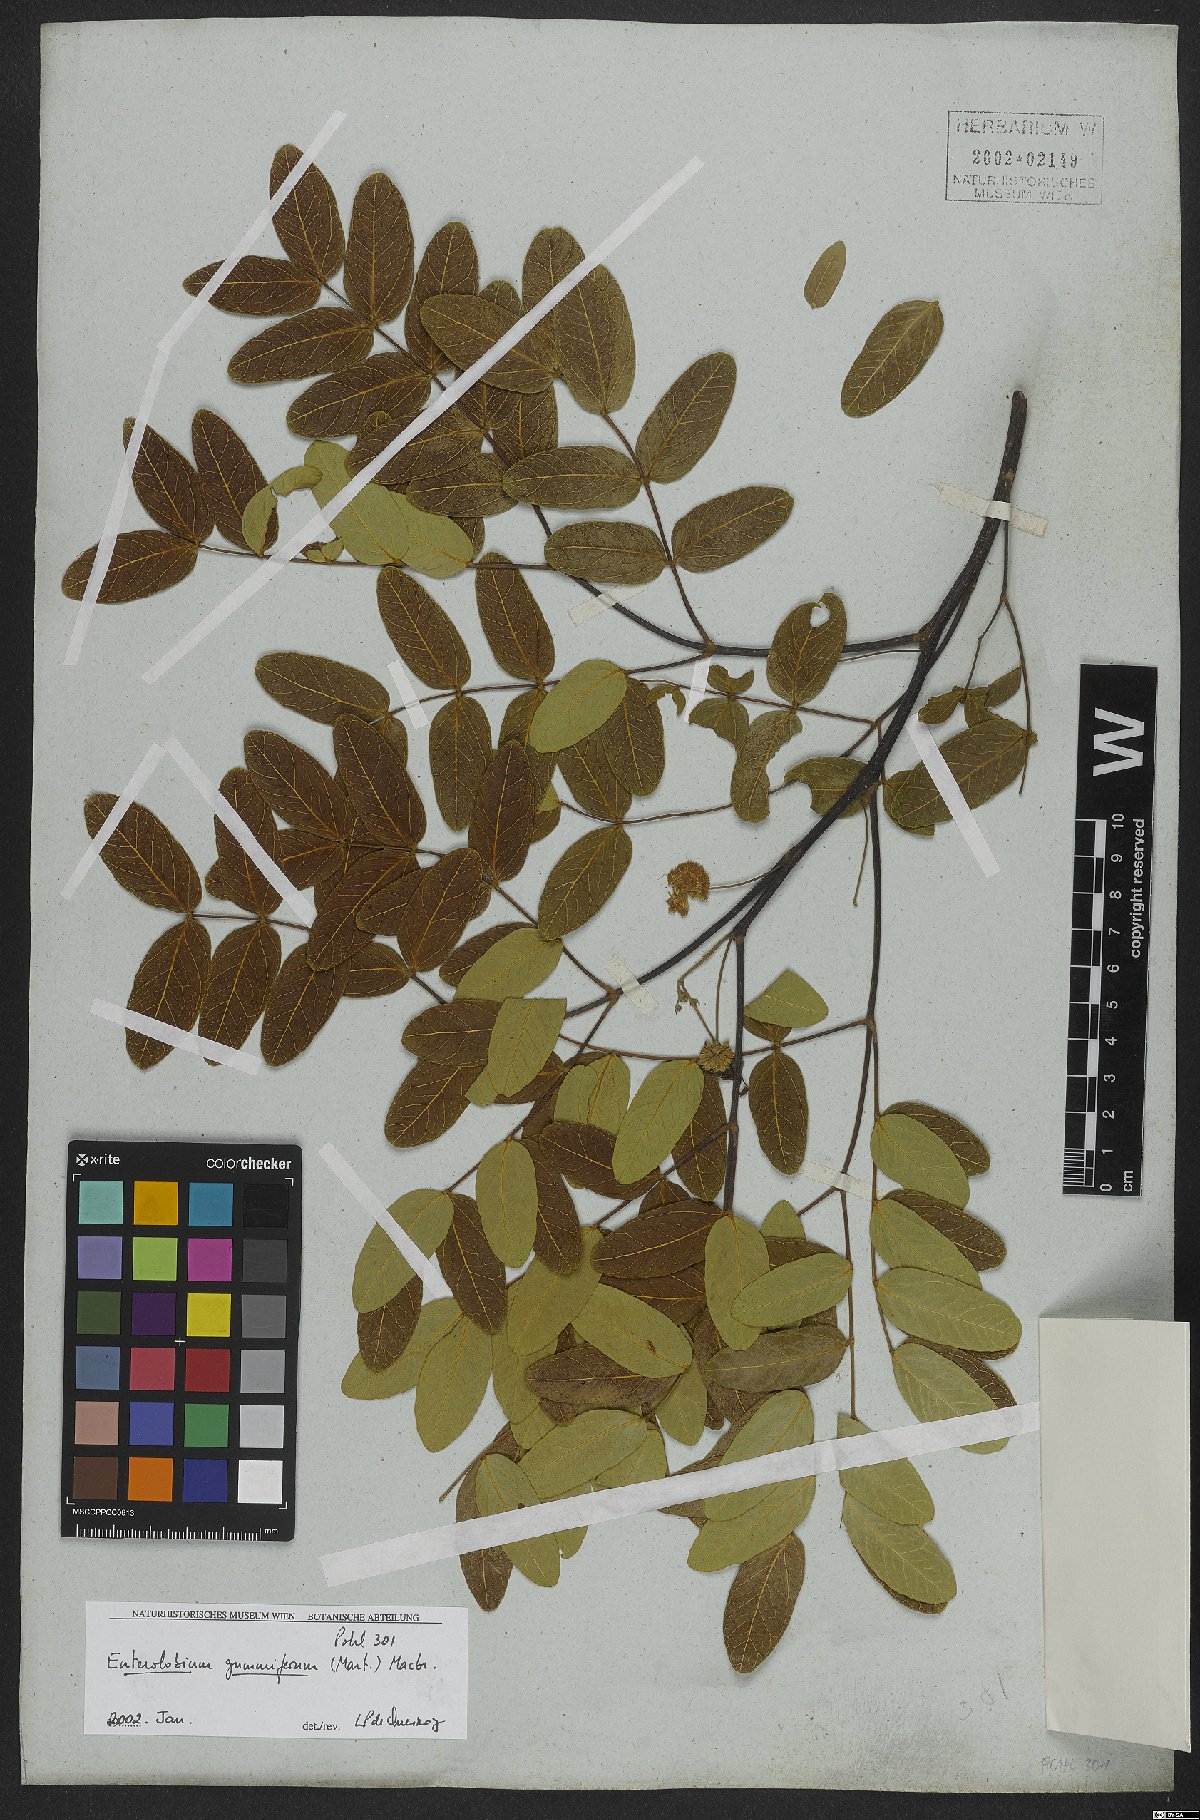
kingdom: Plantae
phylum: Tracheophyta
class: Magnoliopsida
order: Fabales
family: Fabaceae
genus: Enterolobium
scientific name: Enterolobium gummiferum
